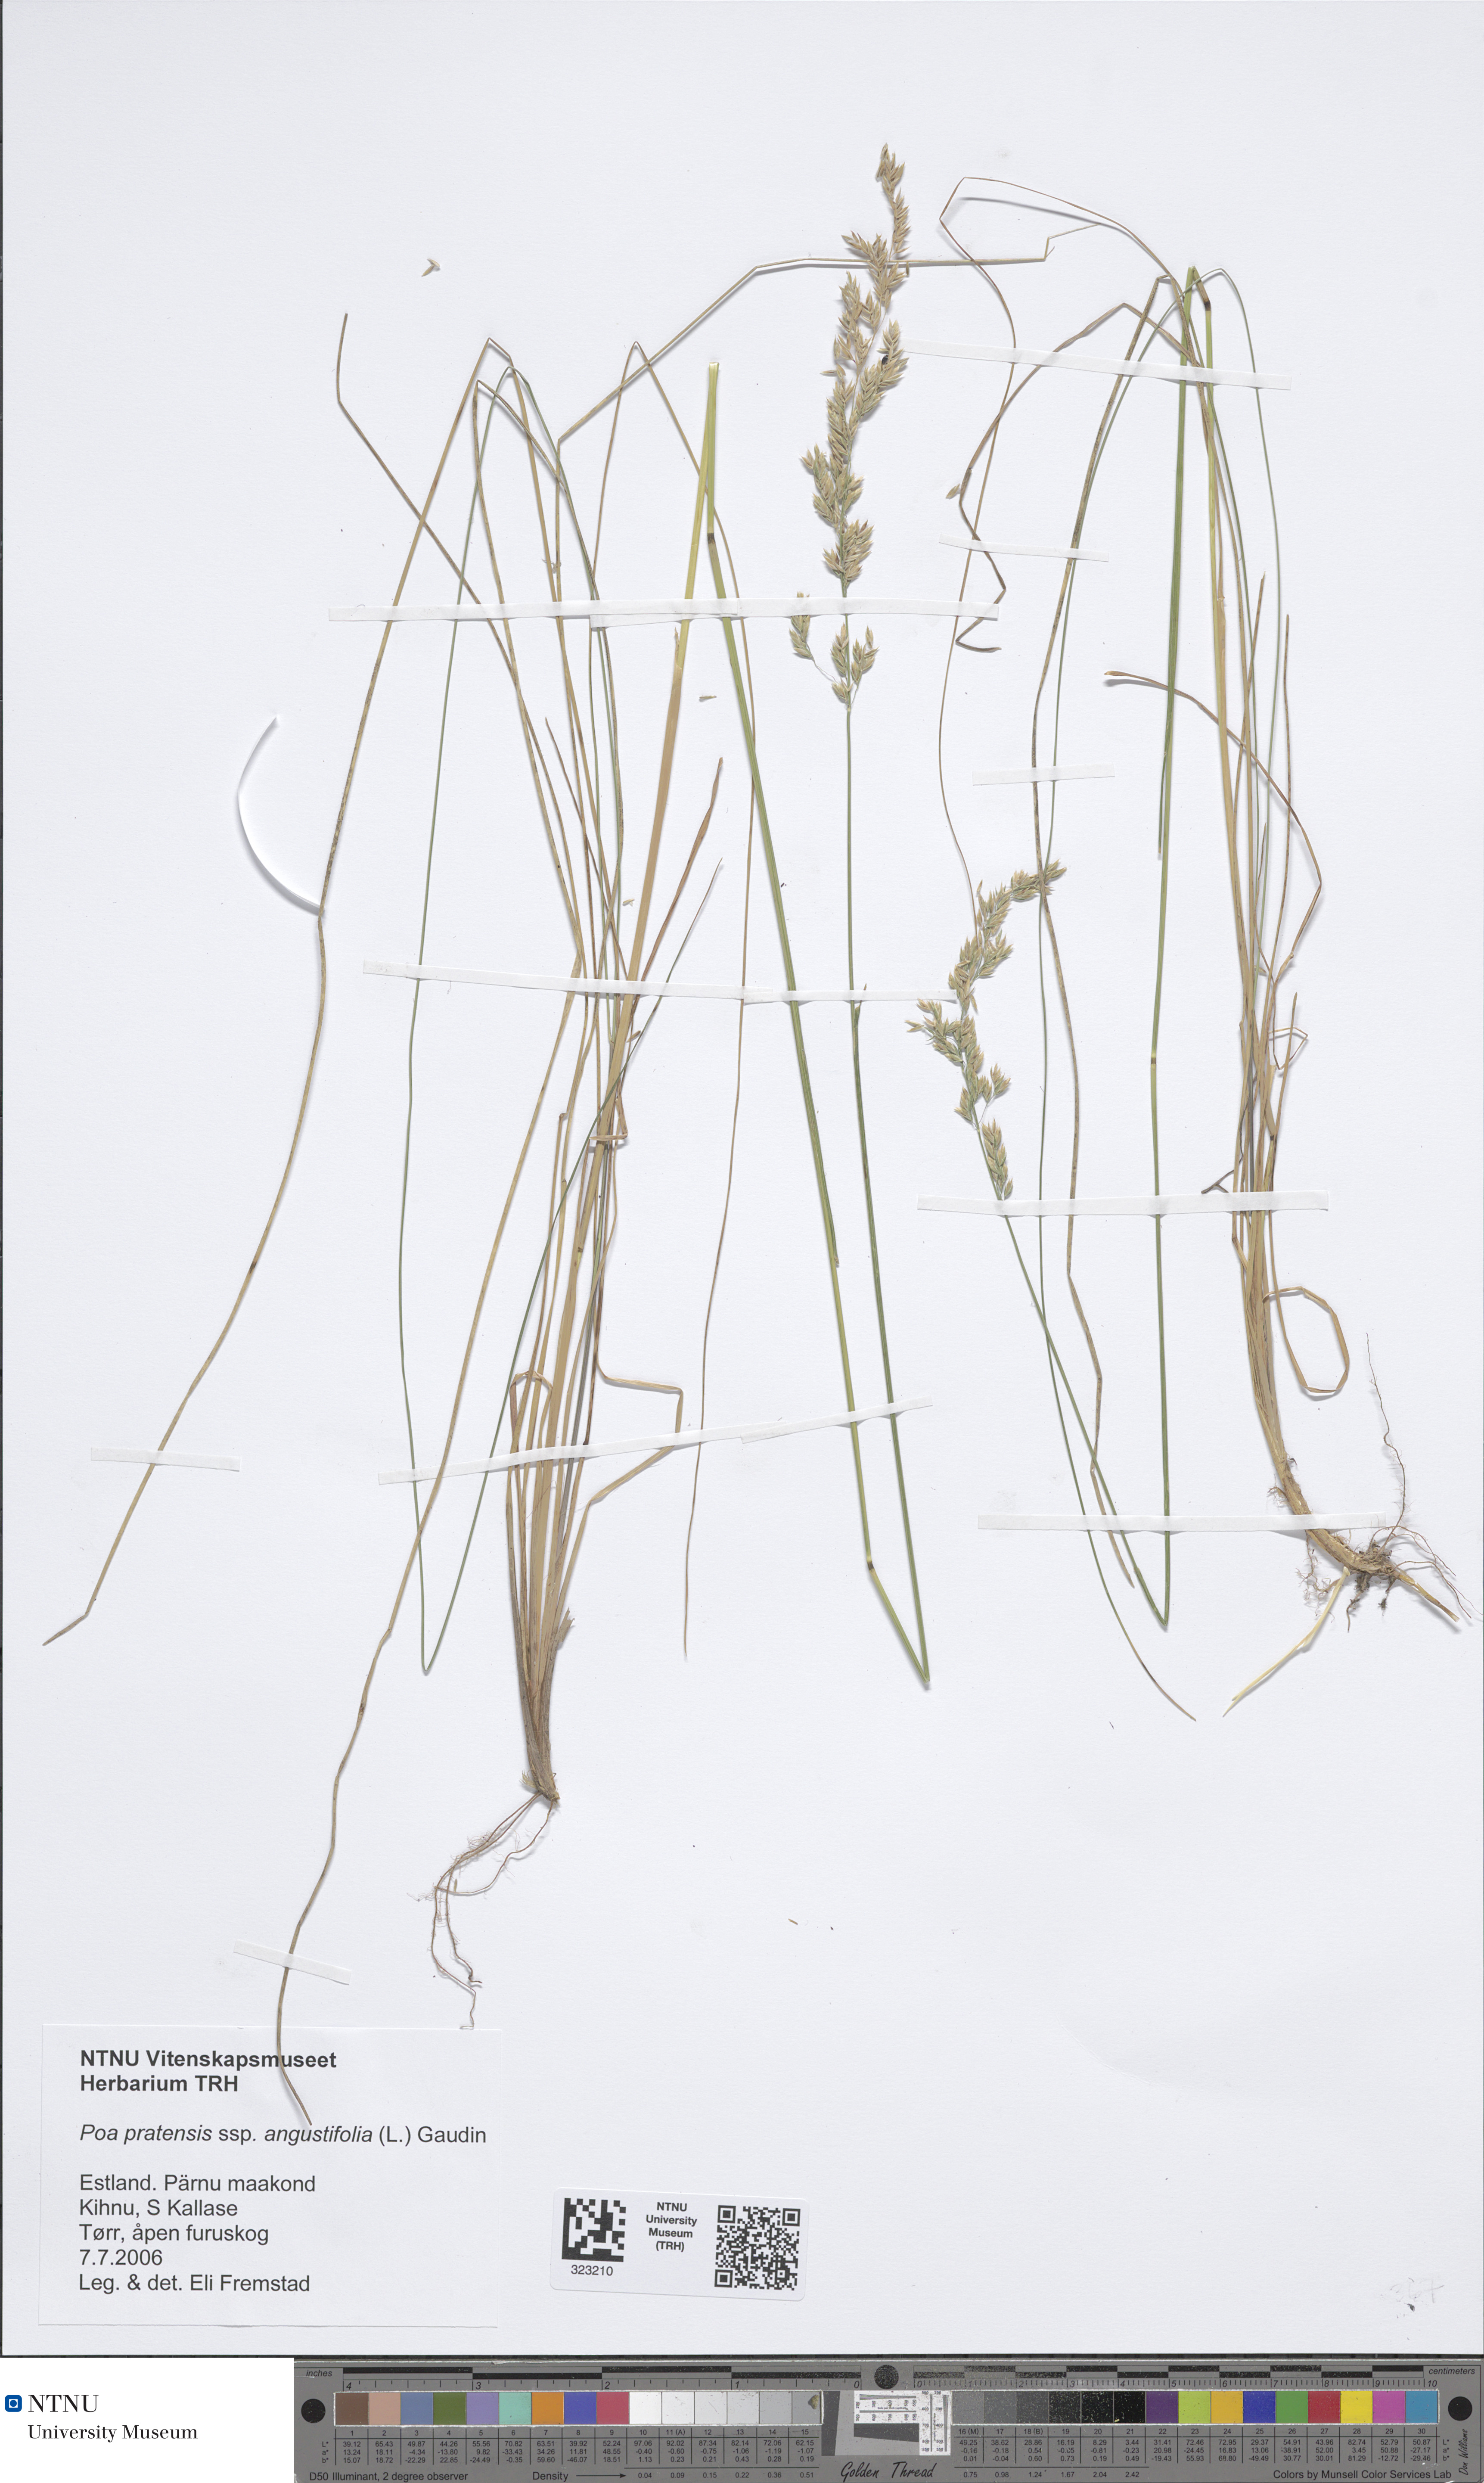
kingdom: Plantae
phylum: Tracheophyta
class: Liliopsida
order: Poales
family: Poaceae
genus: Poa
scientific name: Poa angustifolia
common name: Narrow-leaved meadow-grass
